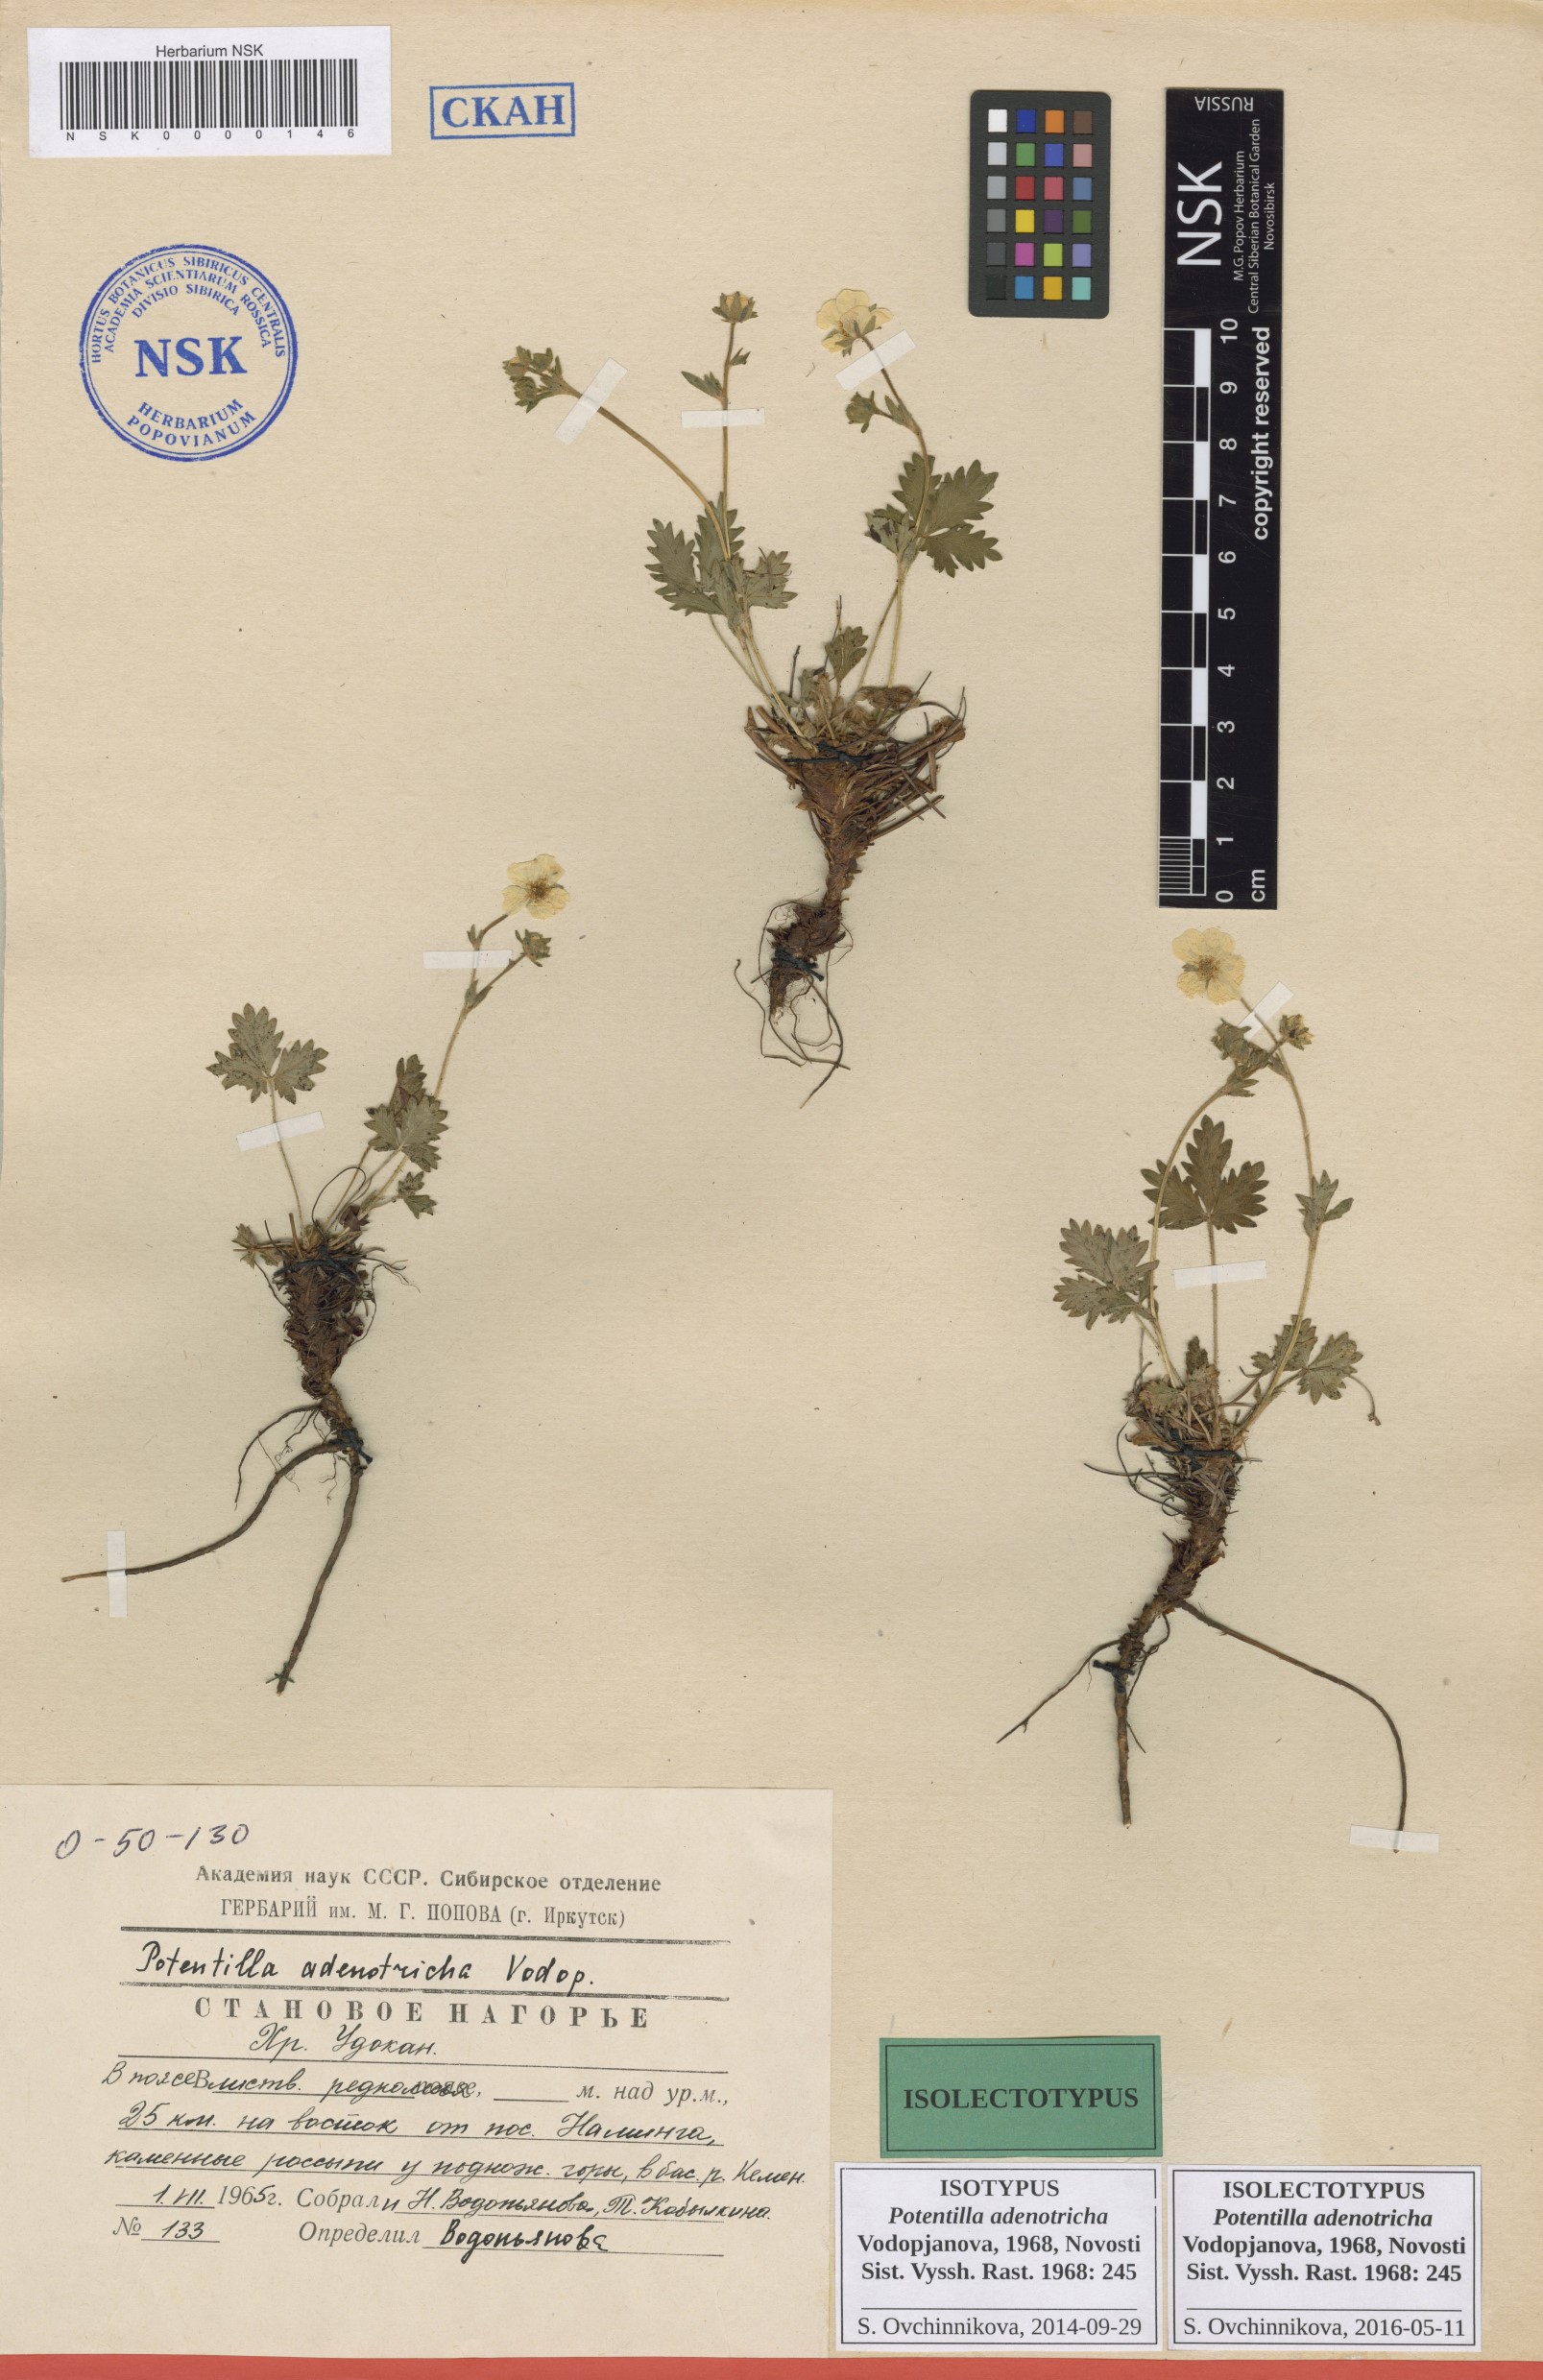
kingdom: Plantae
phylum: Tracheophyta
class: Magnoliopsida
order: Rosales
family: Rosaceae
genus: Potentilla
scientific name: Potentilla adenotricha
